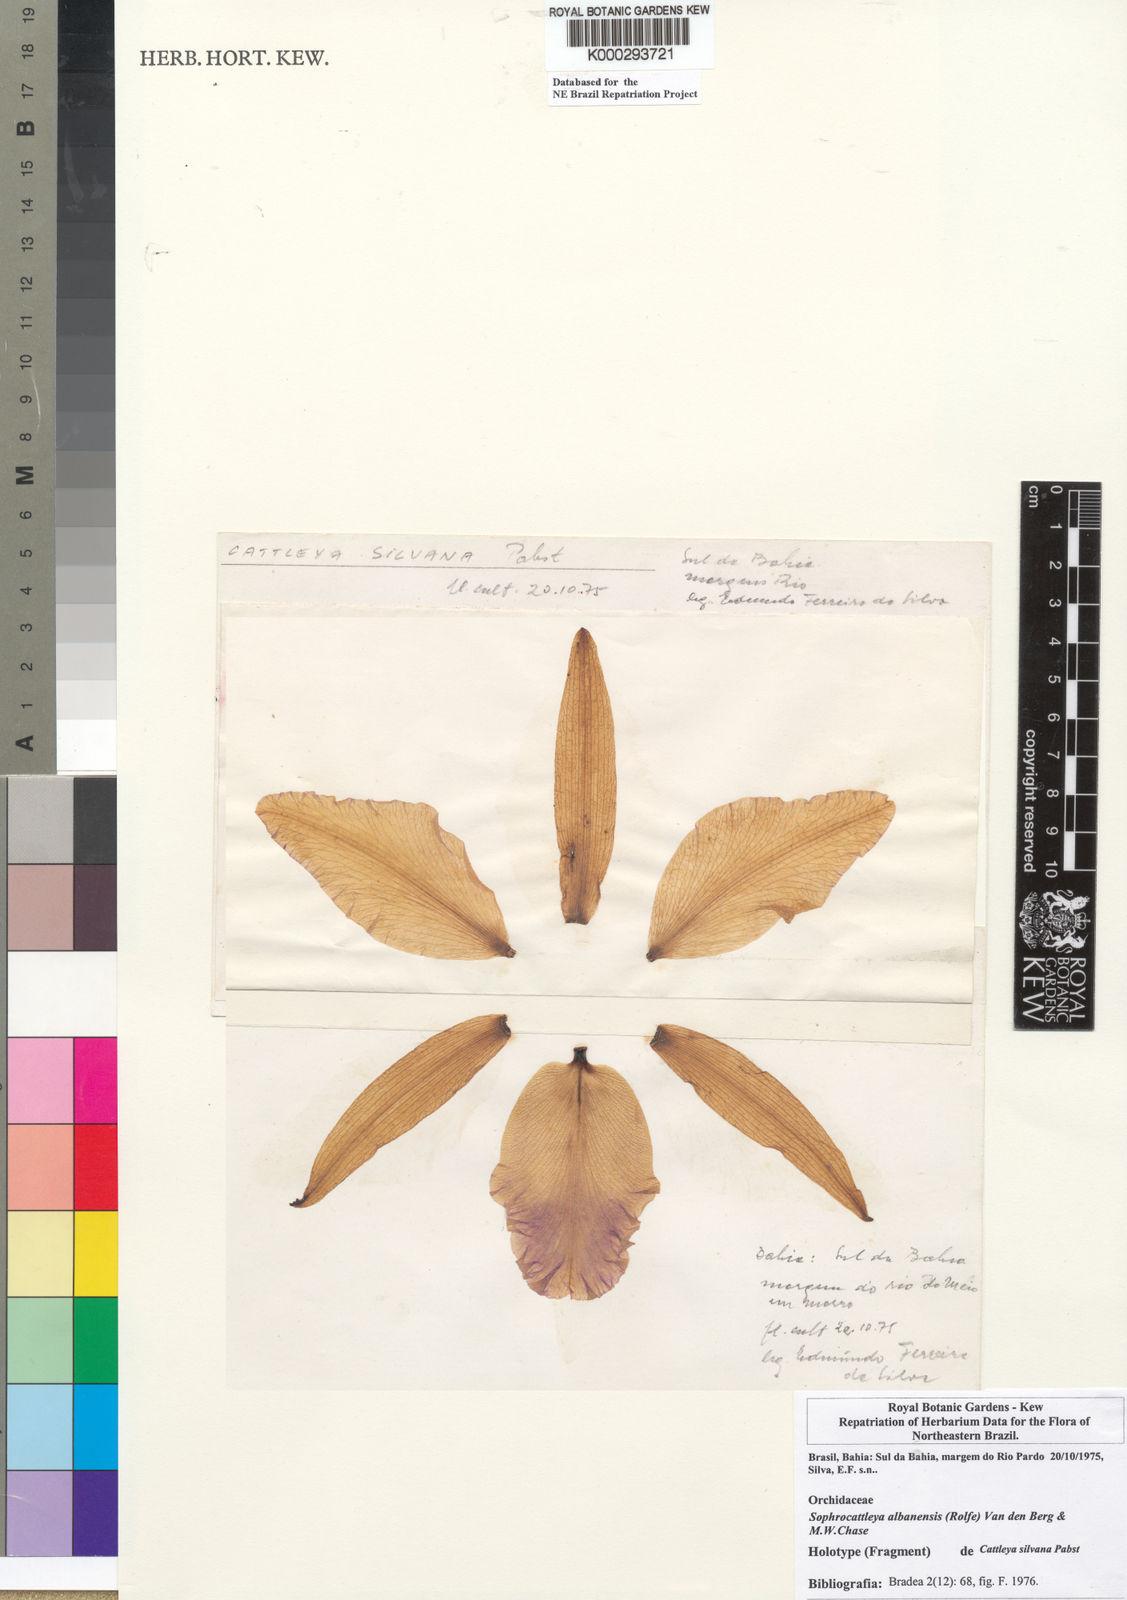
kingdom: Plantae
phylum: Tracheophyta
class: Liliopsida
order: Asparagales
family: Orchidaceae
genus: Cattleya
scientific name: Cattleya albanensis
